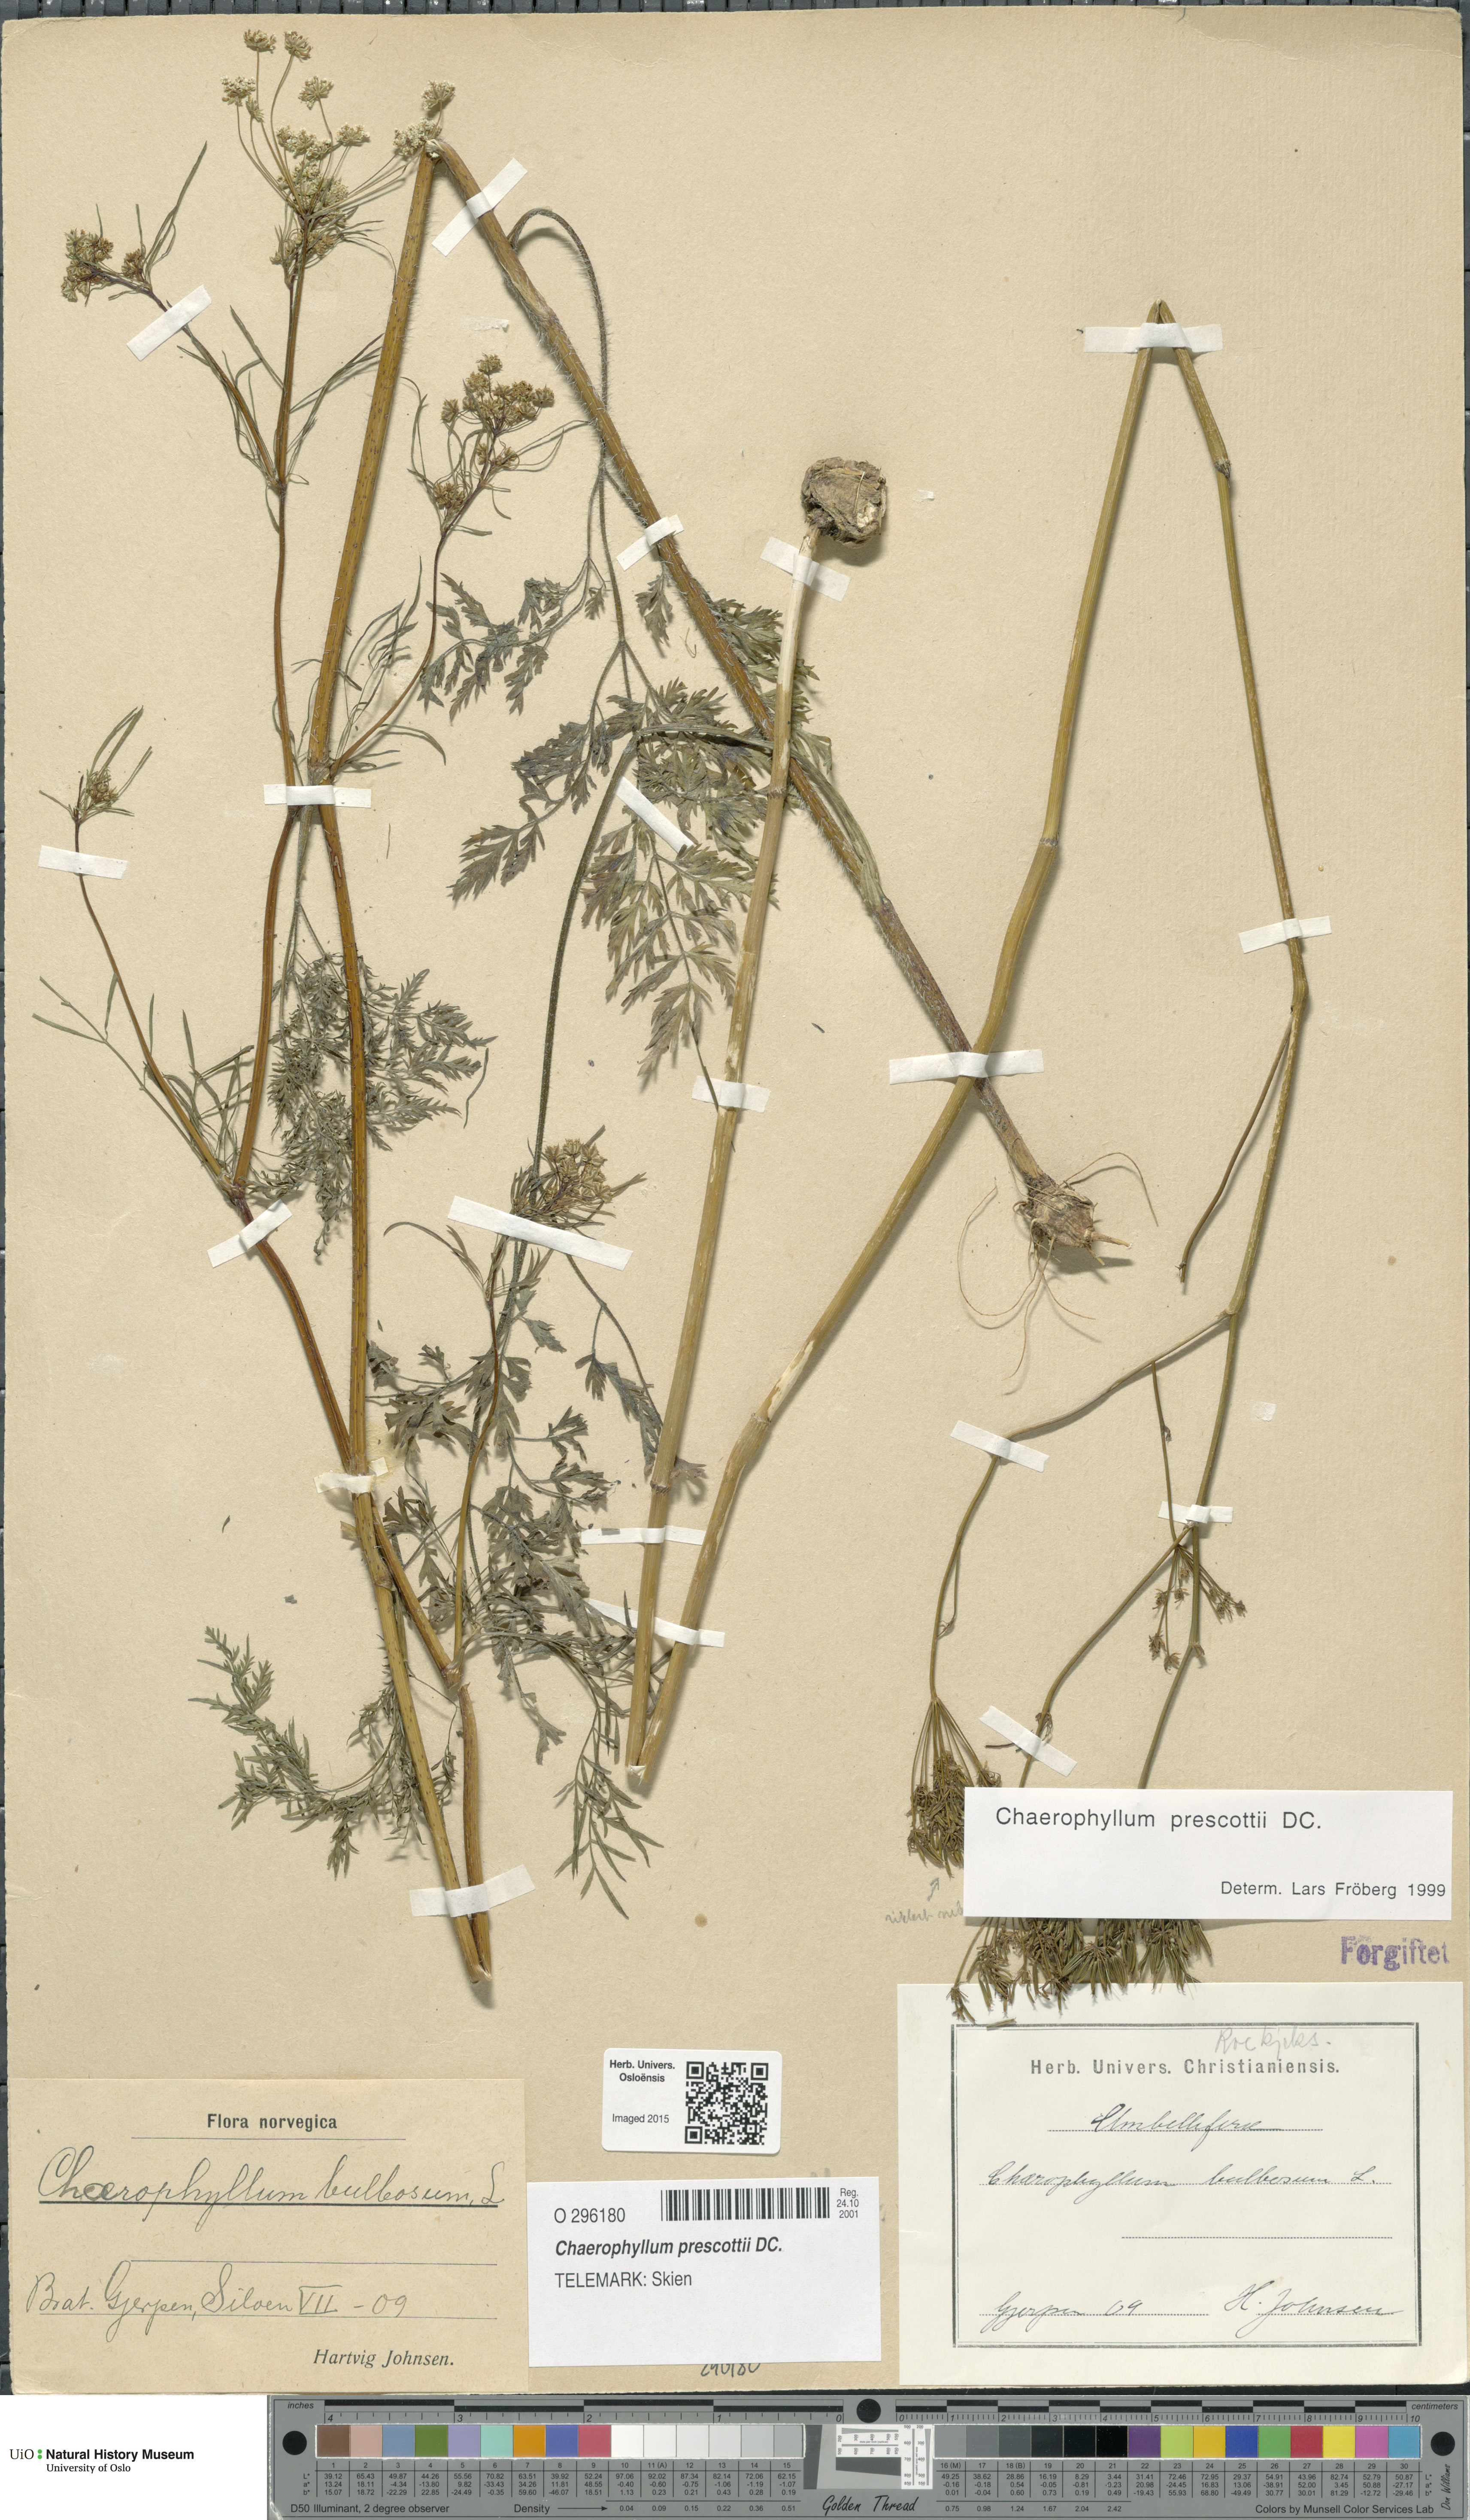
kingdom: Plantae
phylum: Tracheophyta
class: Magnoliopsida
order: Apiales
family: Apiaceae
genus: Chaerophyllum
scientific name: Chaerophyllum prescottii
